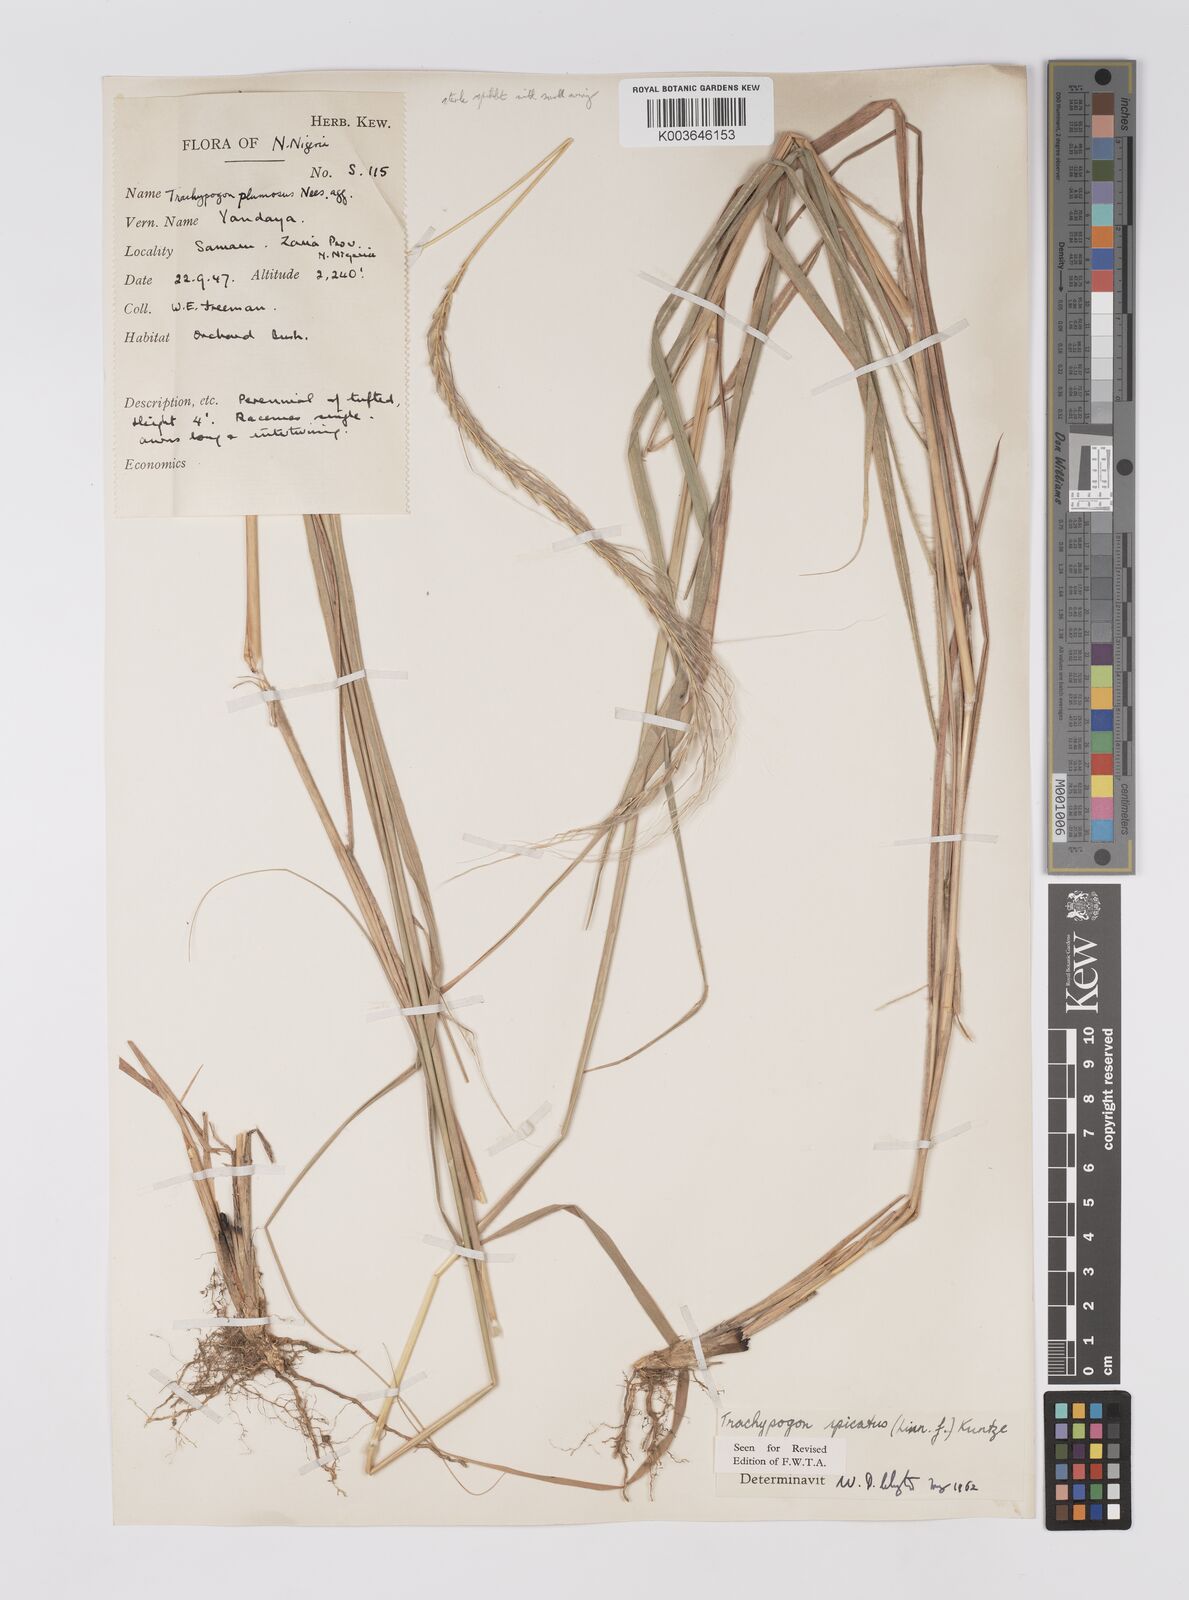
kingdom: Plantae
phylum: Tracheophyta
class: Liliopsida
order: Poales
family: Poaceae
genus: Trachypogon
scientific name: Trachypogon spicatus
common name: Crinkle-awn
